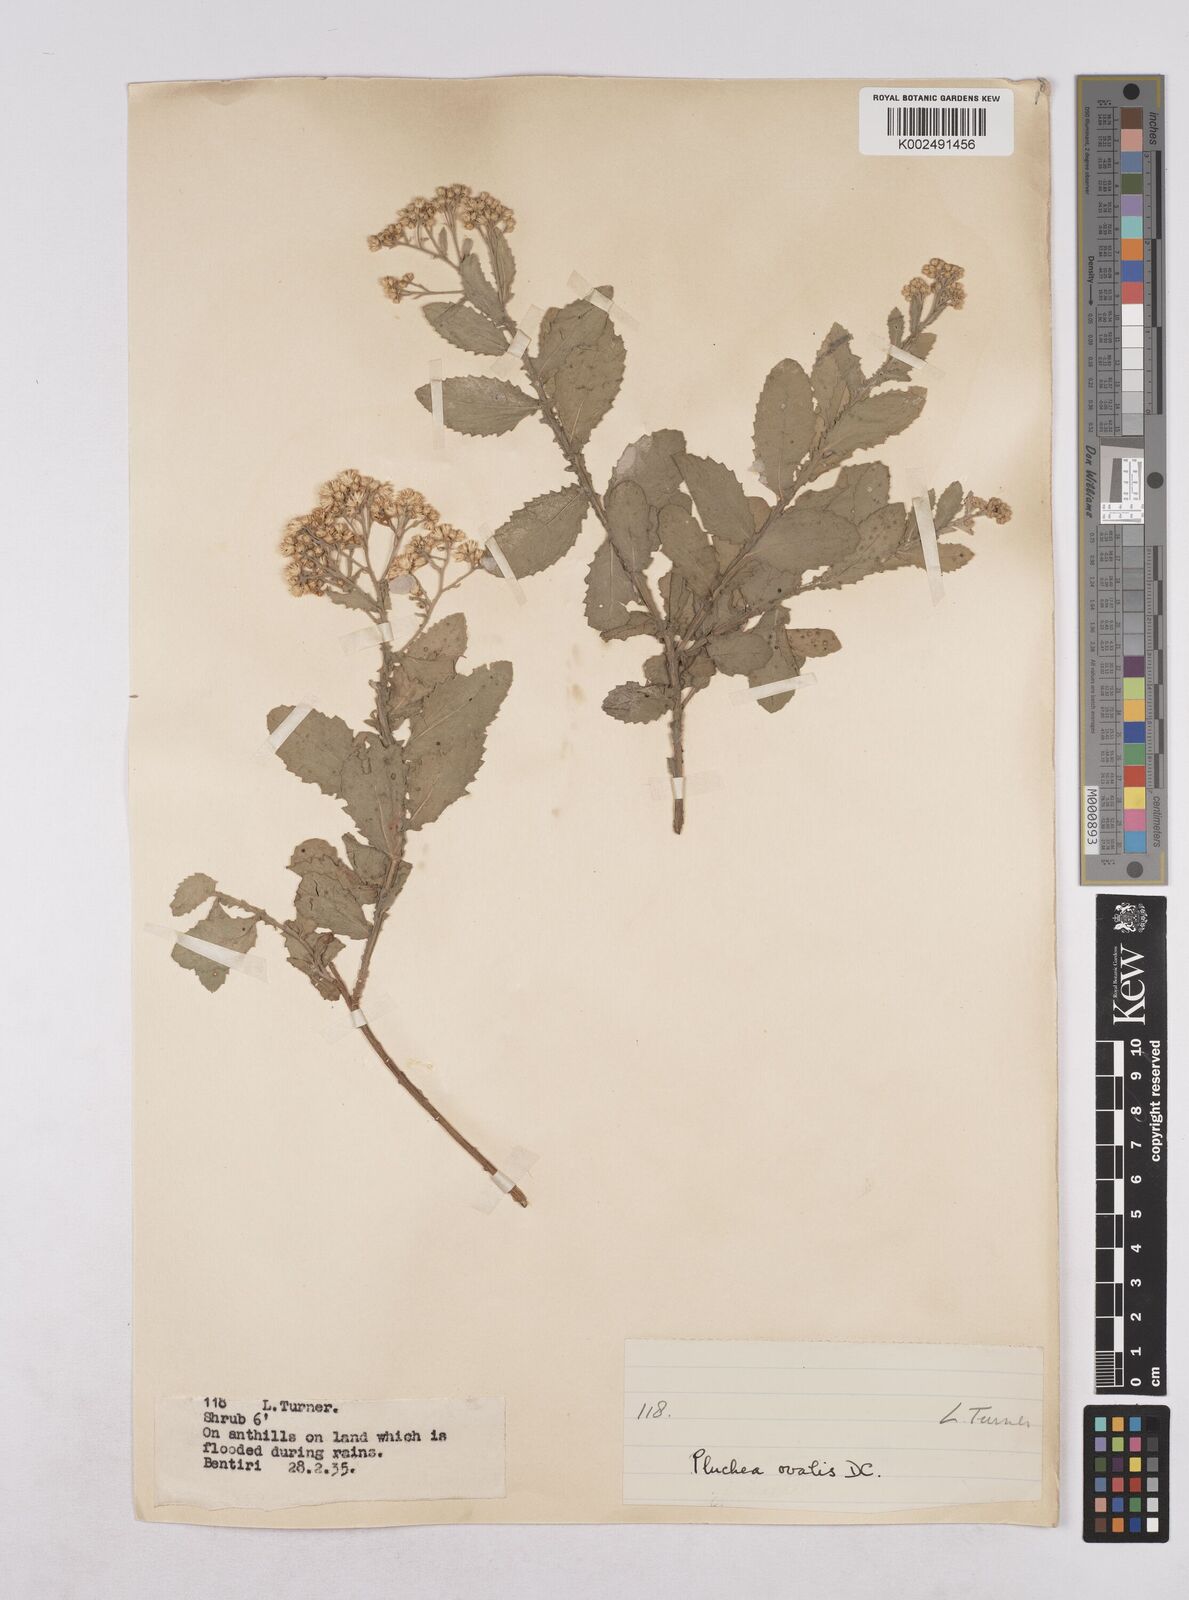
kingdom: Plantae
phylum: Tracheophyta
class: Magnoliopsida
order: Asterales
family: Asteraceae
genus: Pluchea
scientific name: Pluchea ovalis
